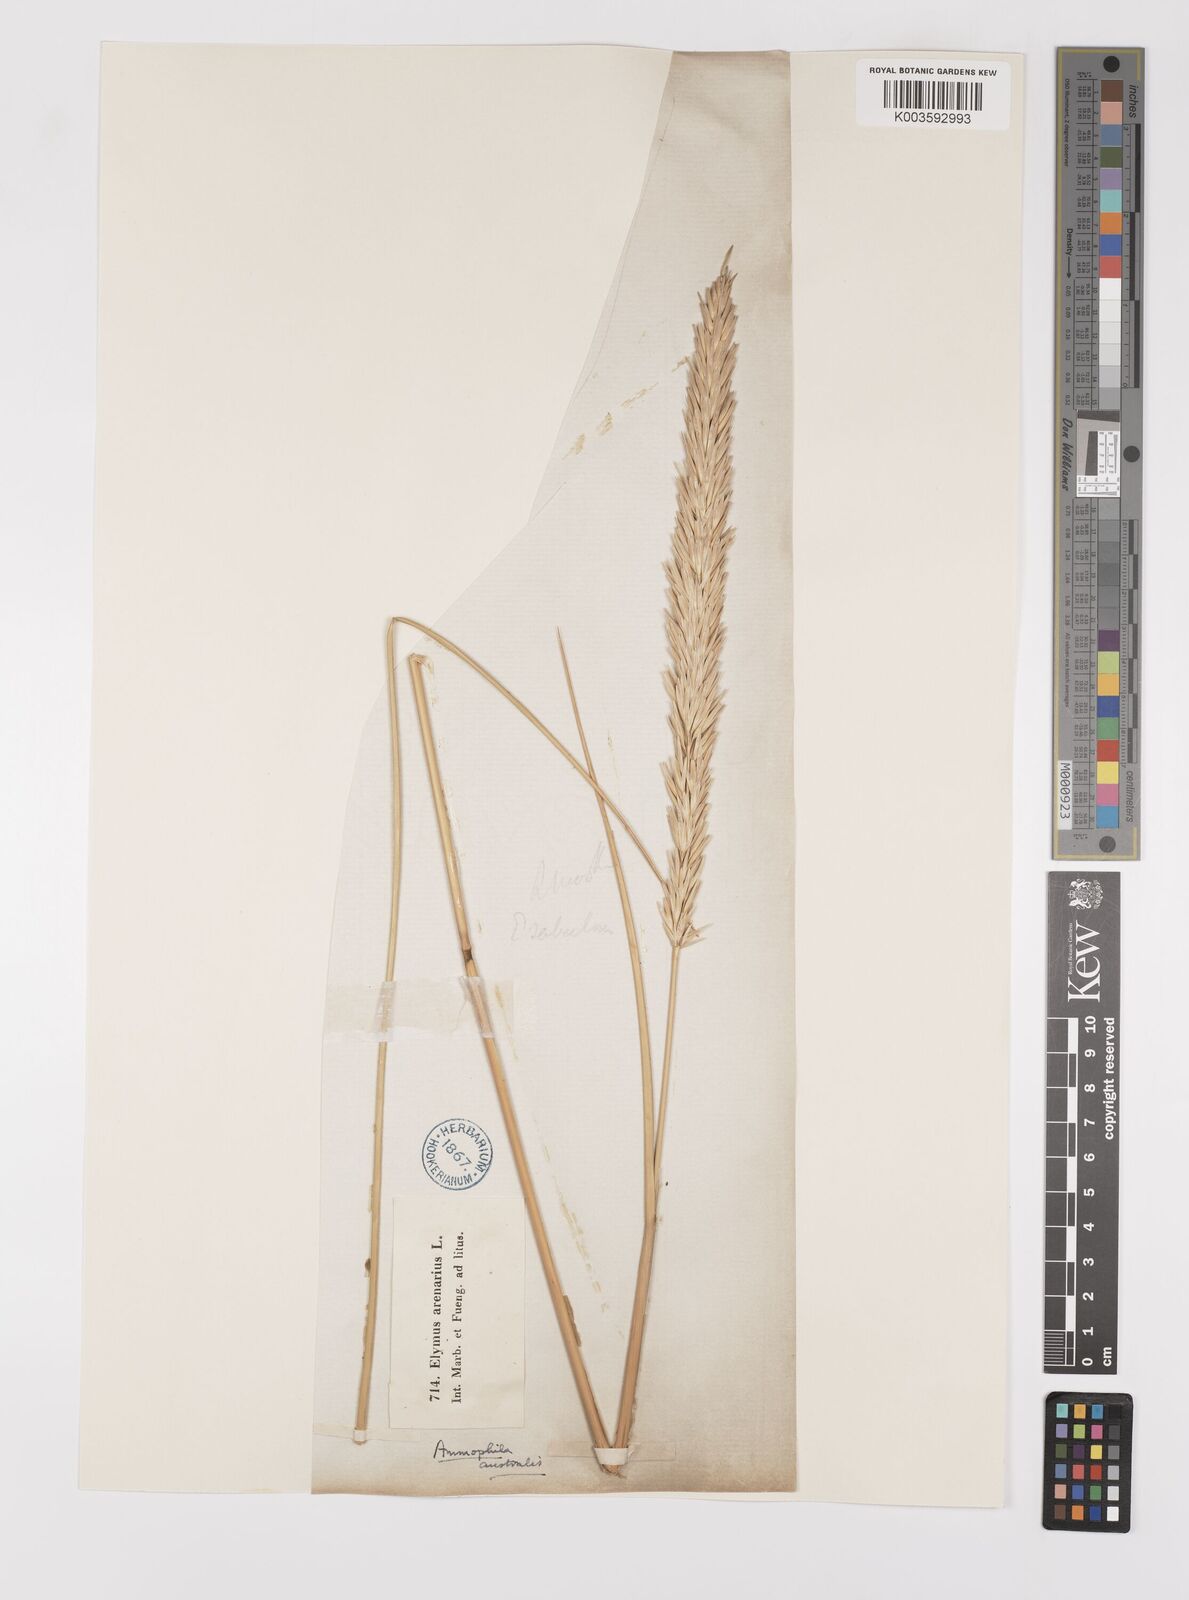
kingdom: Plantae
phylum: Tracheophyta
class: Liliopsida
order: Poales
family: Poaceae
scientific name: Poaceae
